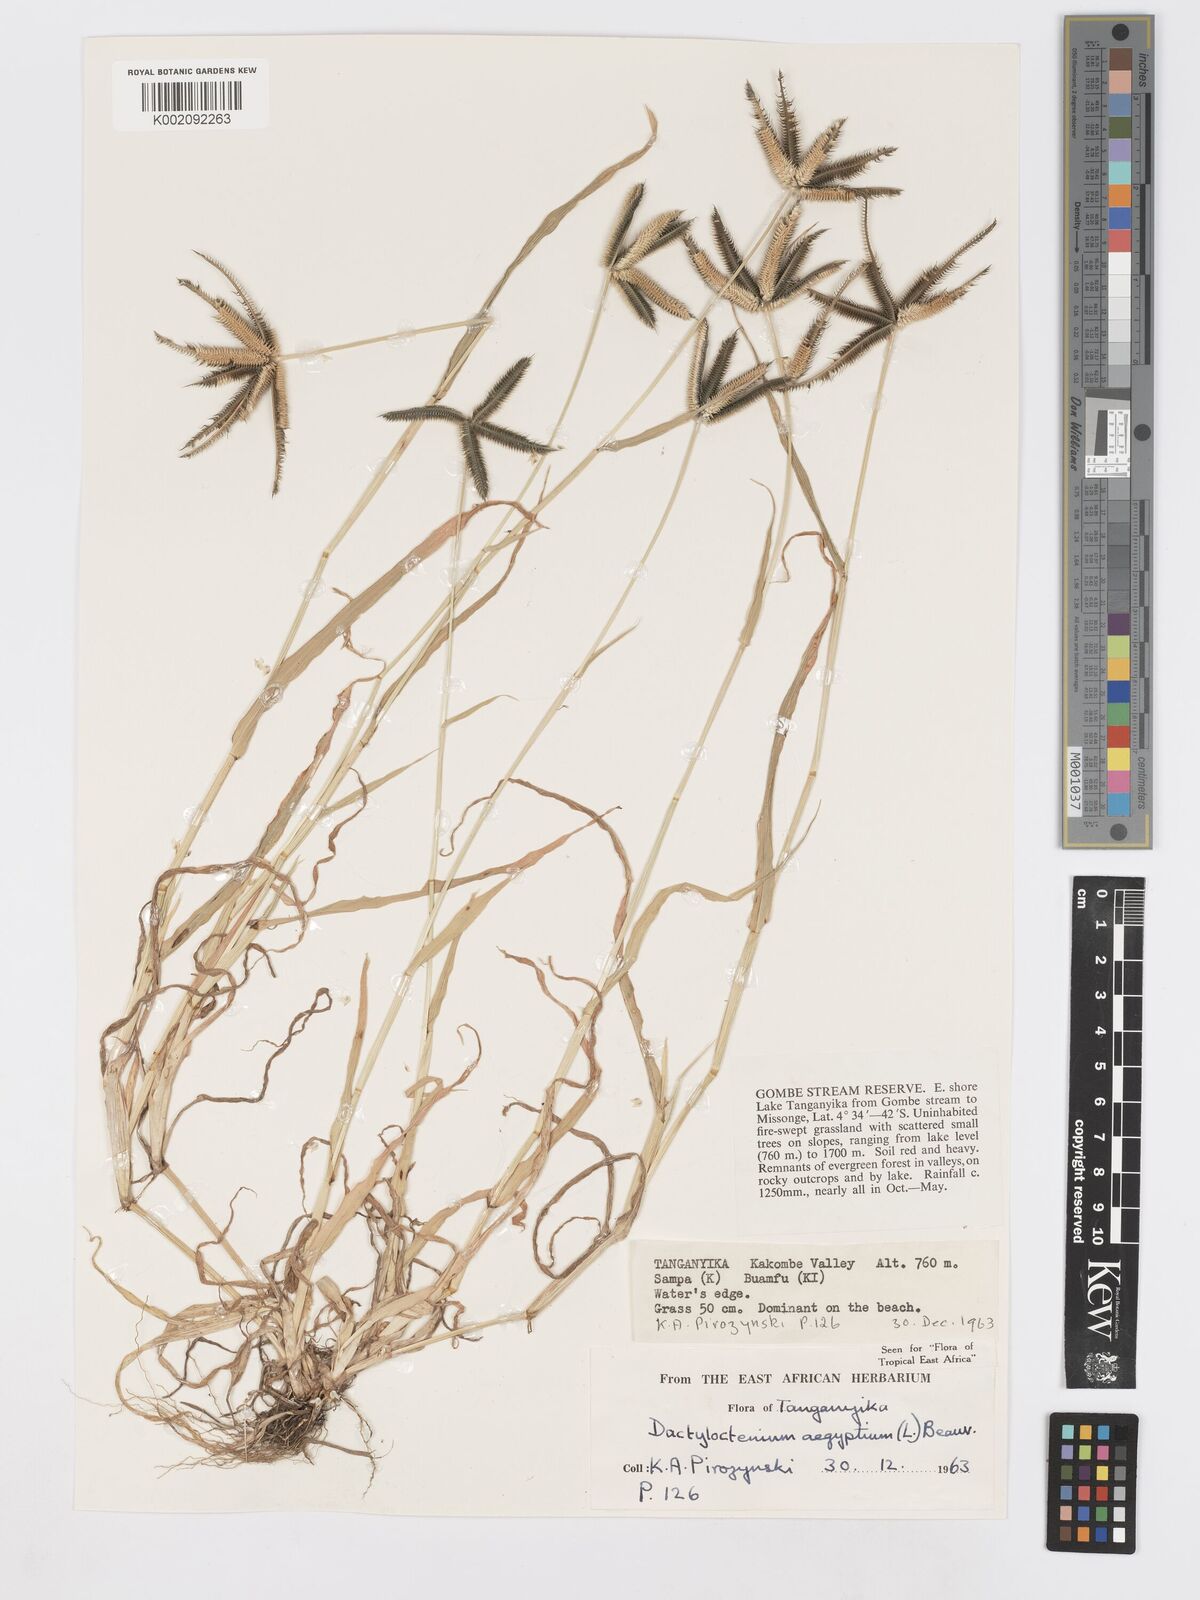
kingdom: Plantae
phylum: Tracheophyta
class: Liliopsida
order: Poales
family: Poaceae
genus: Dactyloctenium
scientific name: Dactyloctenium aegyptium
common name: Egyptian grass
